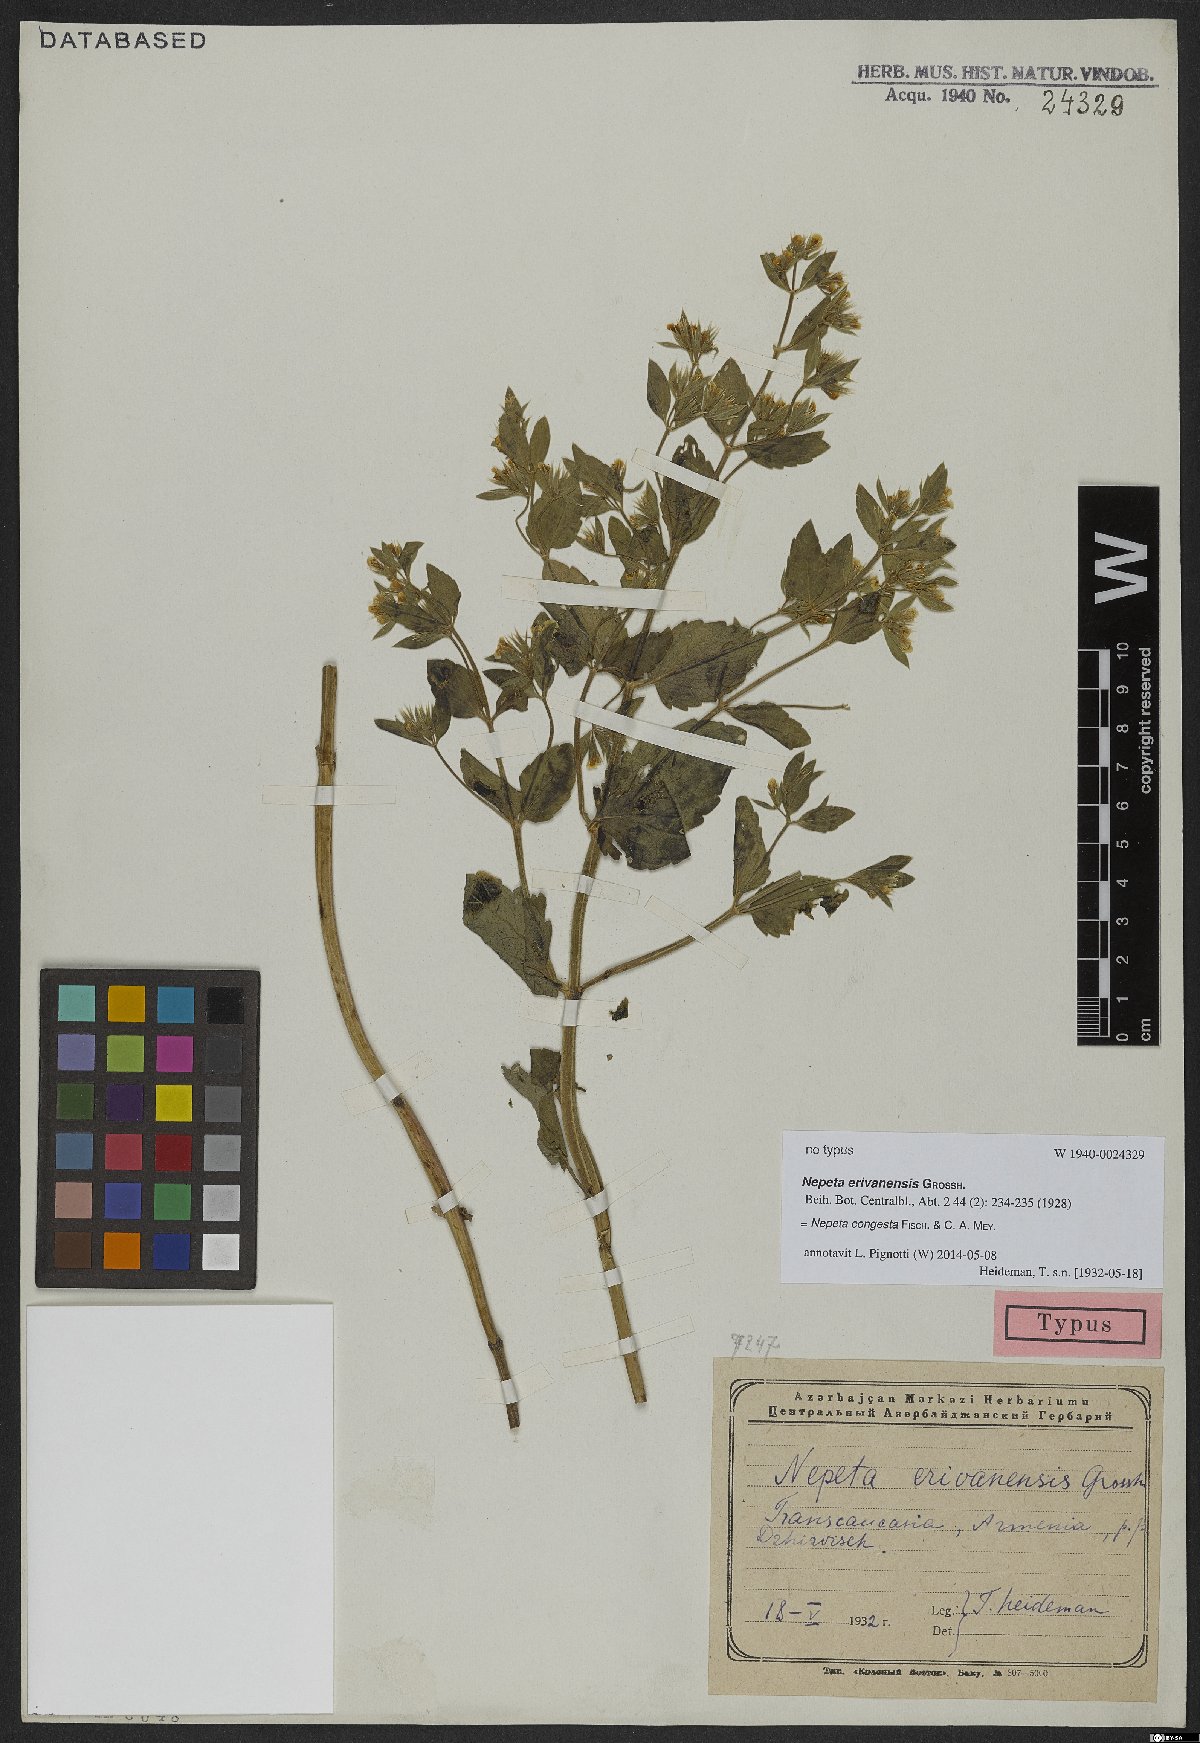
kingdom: Plantae
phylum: Tracheophyta
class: Magnoliopsida
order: Lamiales
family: Lamiaceae
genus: Nepeta
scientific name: Nepeta congesta
